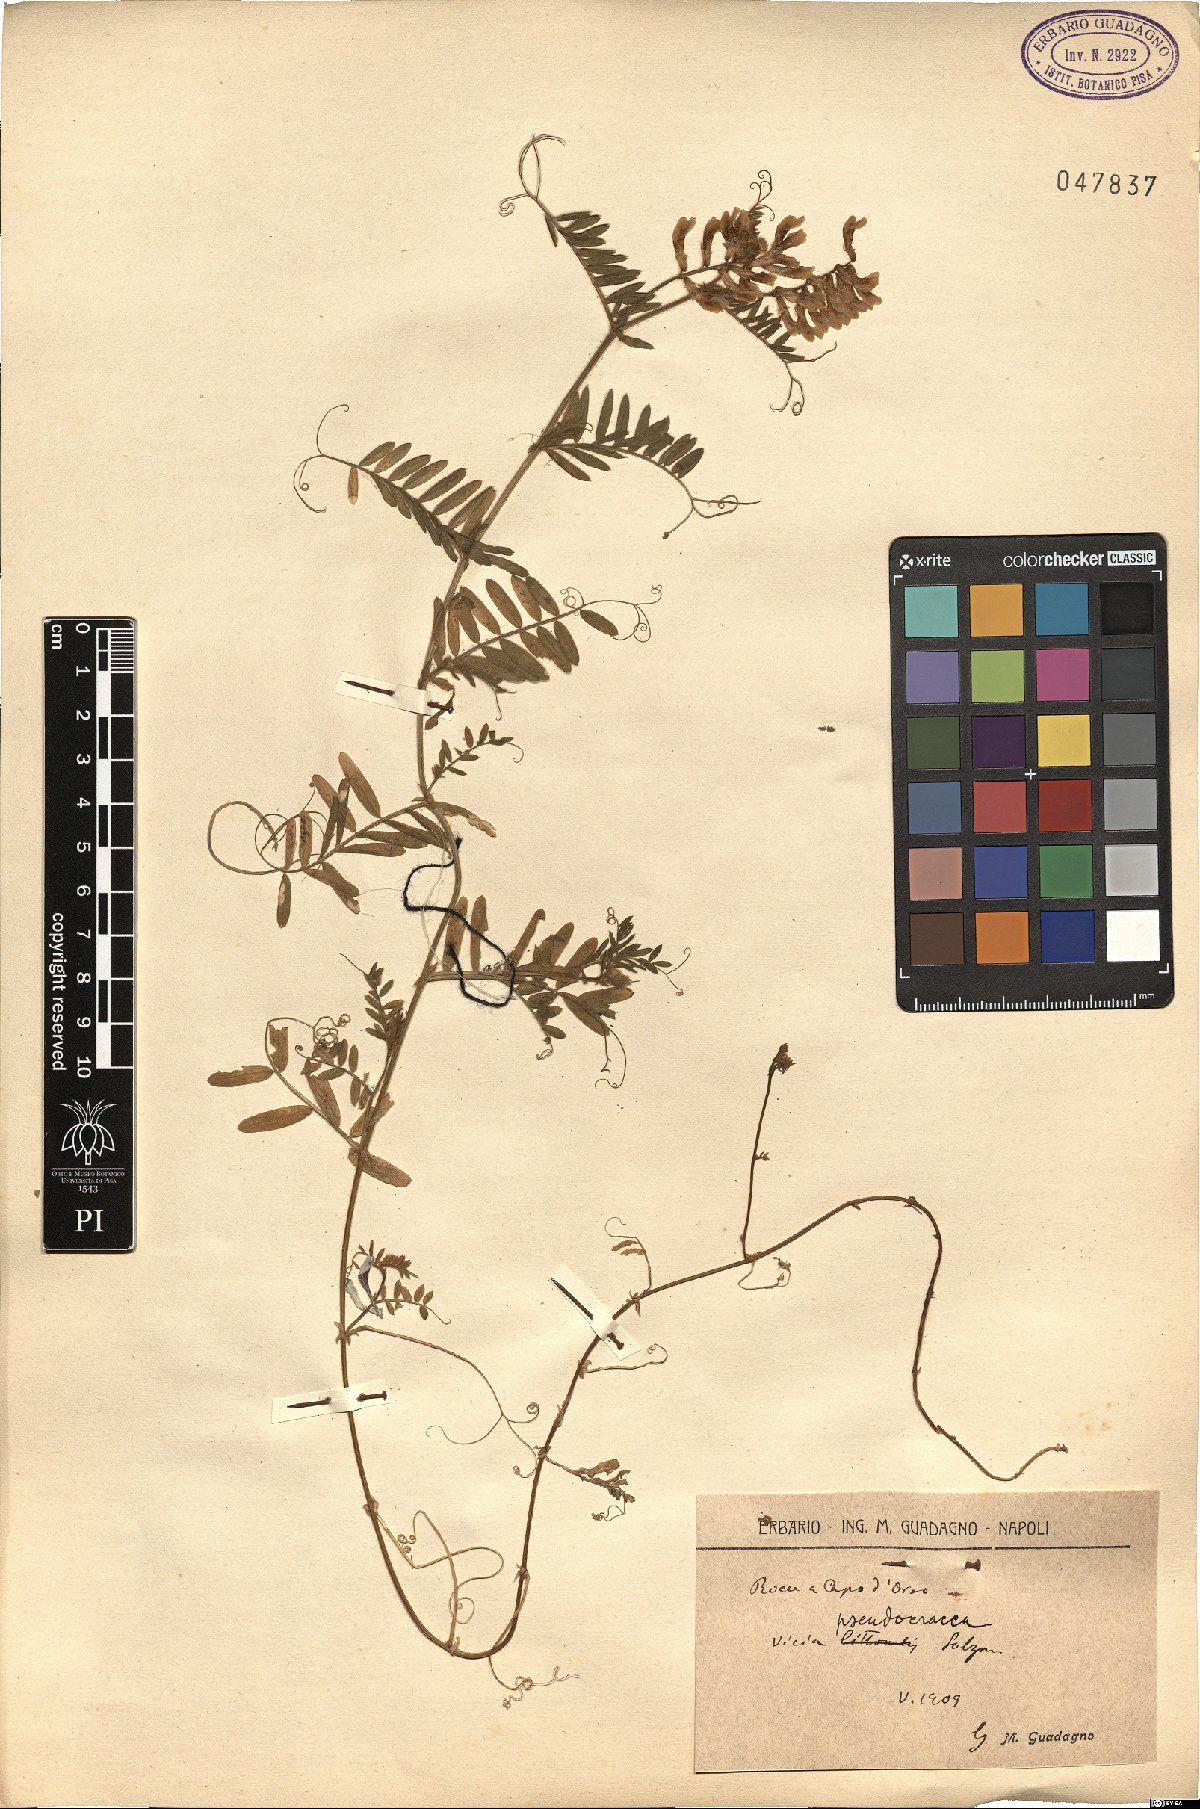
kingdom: Plantae
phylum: Tracheophyta
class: Magnoliopsida
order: Fabales
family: Fabaceae
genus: Vicia
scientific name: Vicia villosa
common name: Fodder vetch
